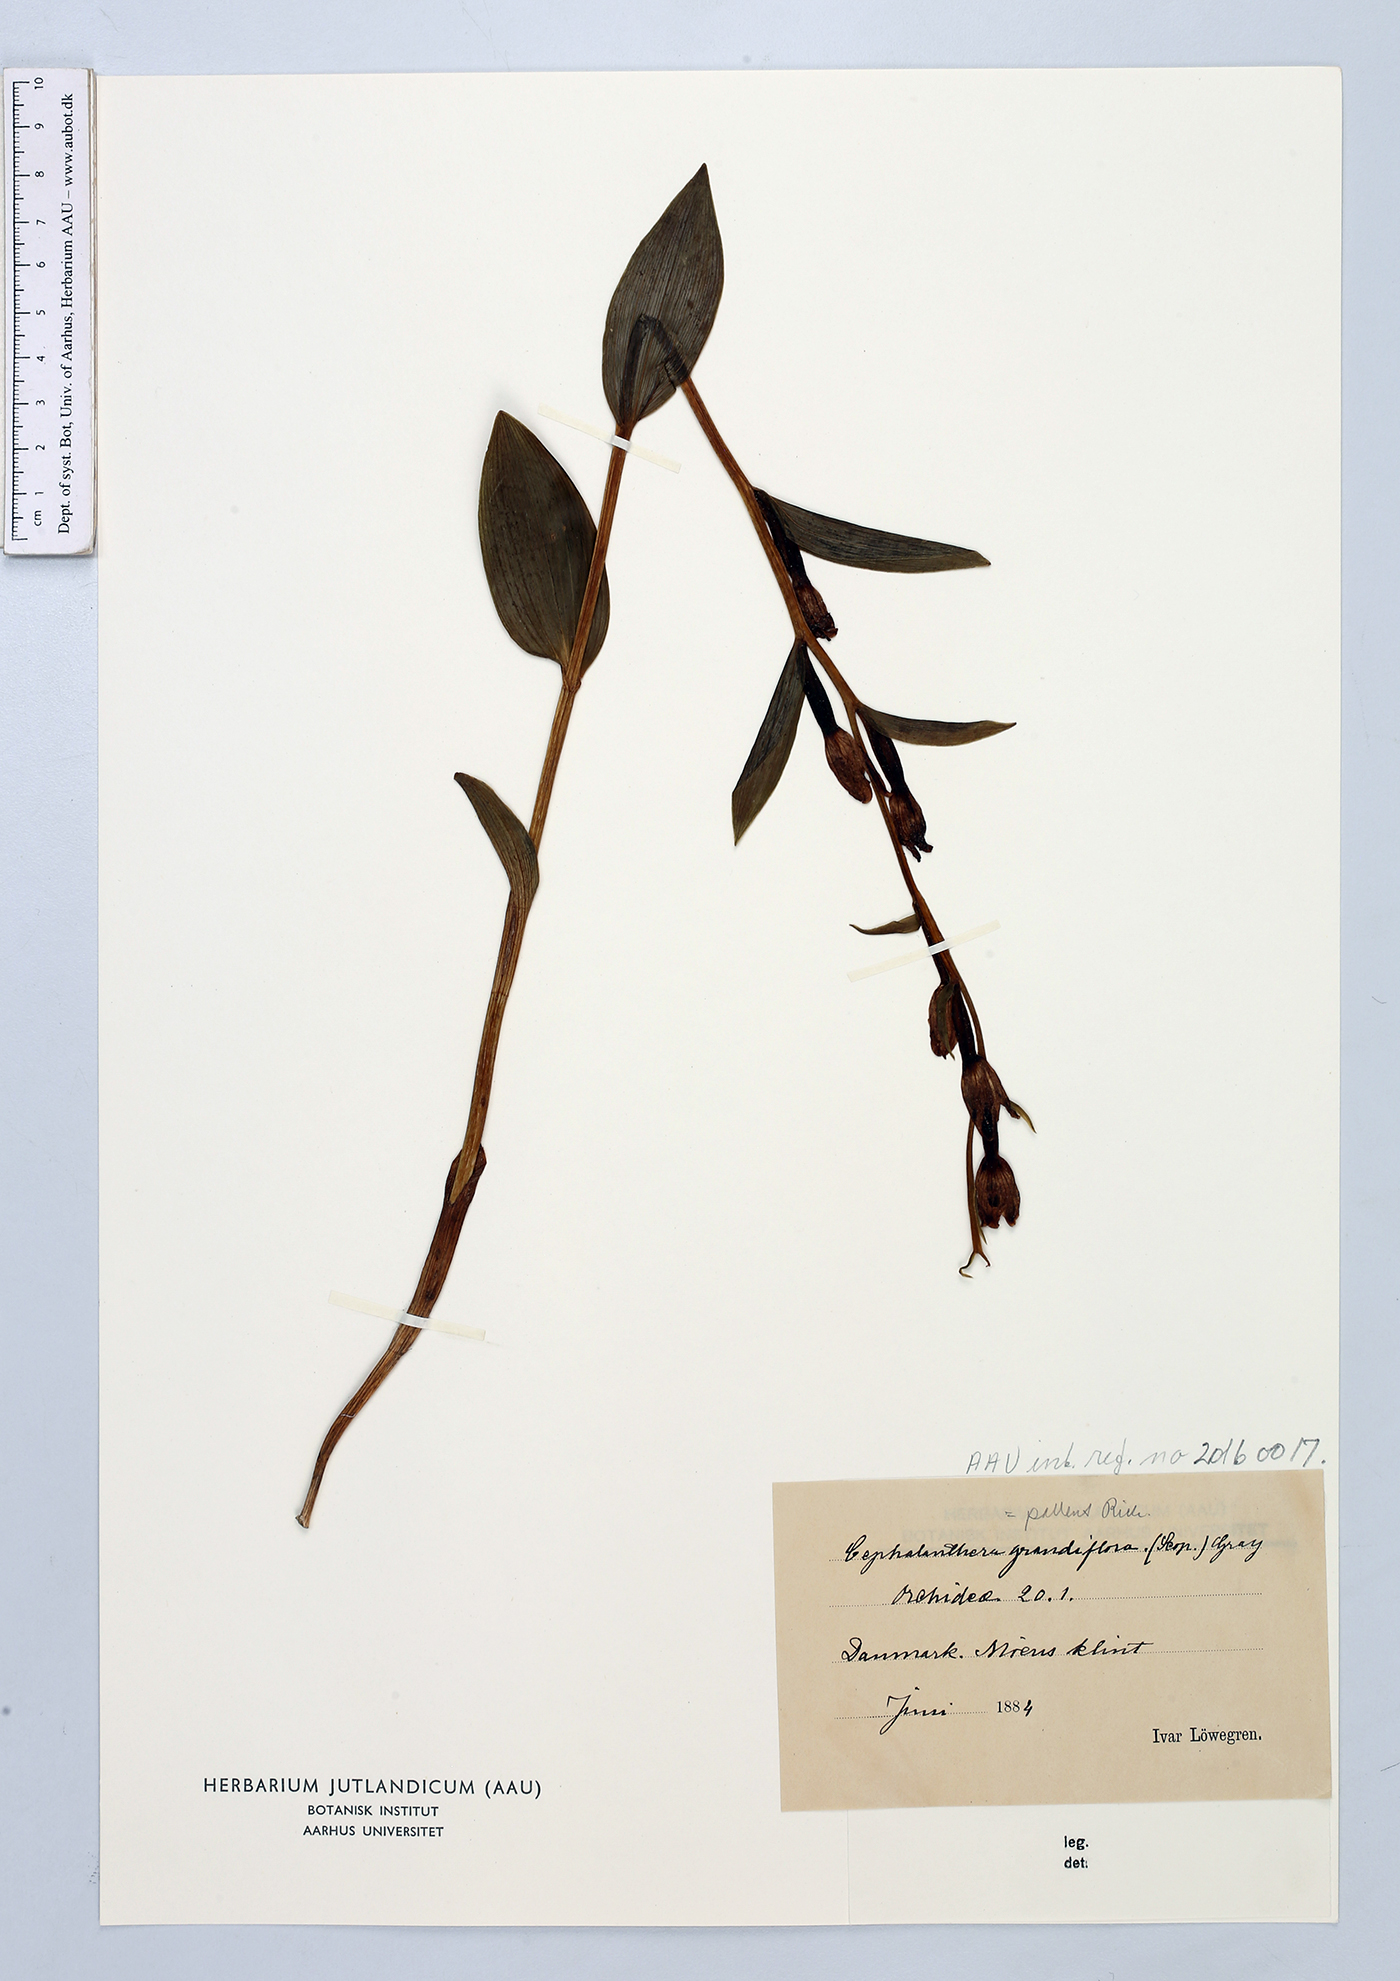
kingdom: Plantae
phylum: Tracheophyta
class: Liliopsida
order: Asparagales
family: Orchidaceae
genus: Cephalanthera
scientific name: Cephalanthera damasonium
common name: White helleborine
